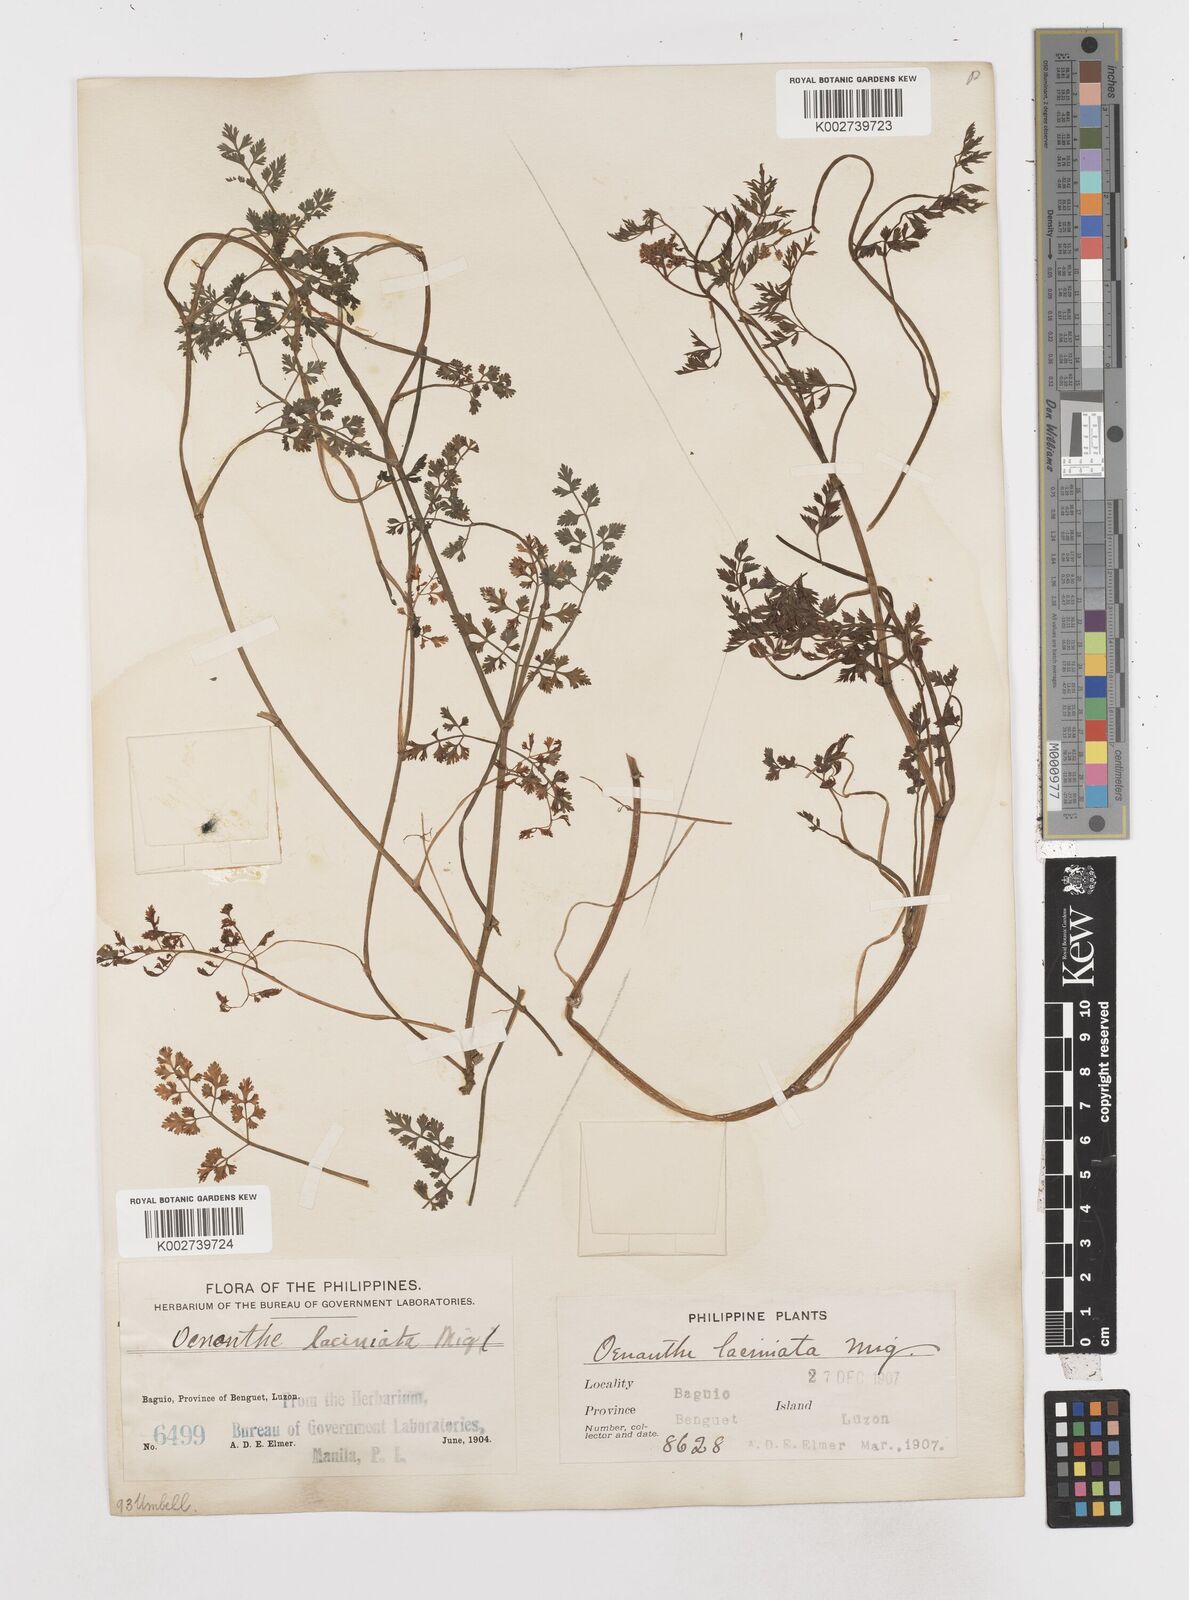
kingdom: Plantae
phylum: Tracheophyta
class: Magnoliopsida
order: Apiales
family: Apiaceae
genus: Oenanthe
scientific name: Oenanthe javanica
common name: Java water-dropwort
